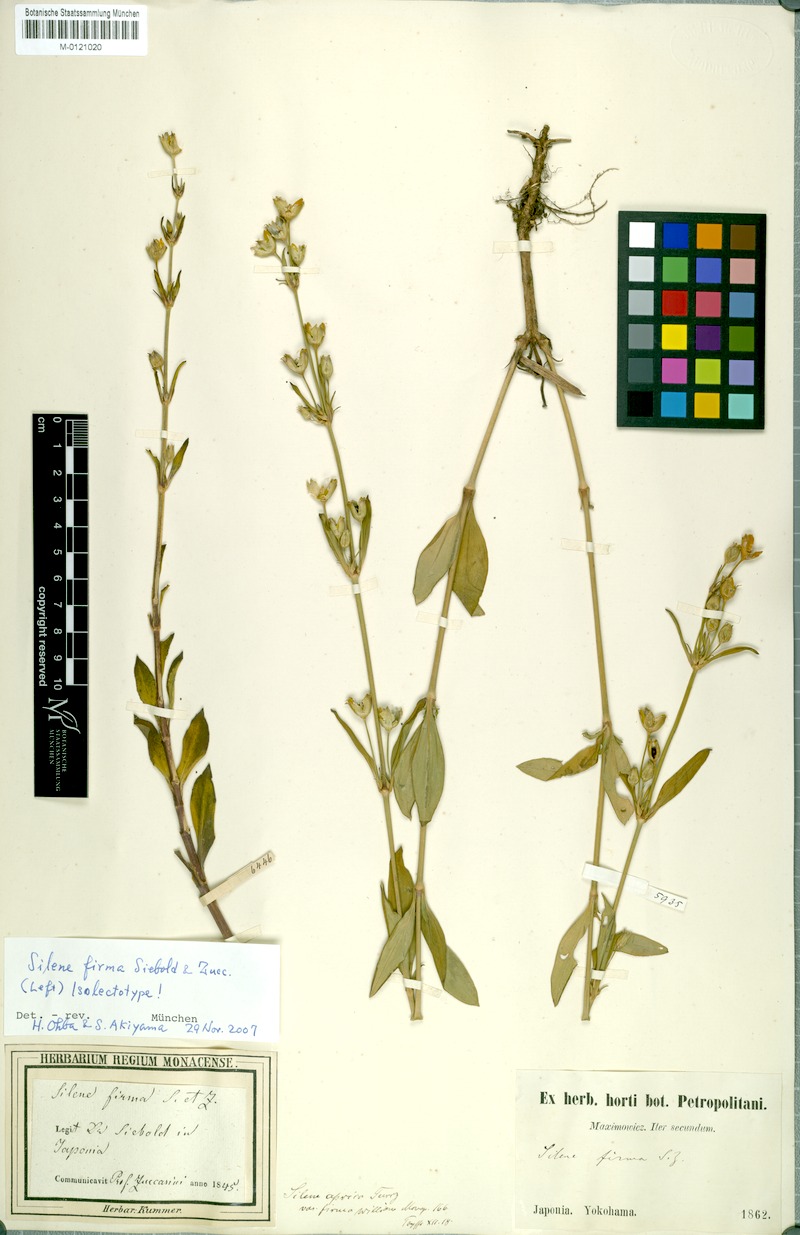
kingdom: Plantae
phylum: Tracheophyta
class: Magnoliopsida
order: Caryophyllales
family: Caryophyllaceae
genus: Silene
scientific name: Silene firma
